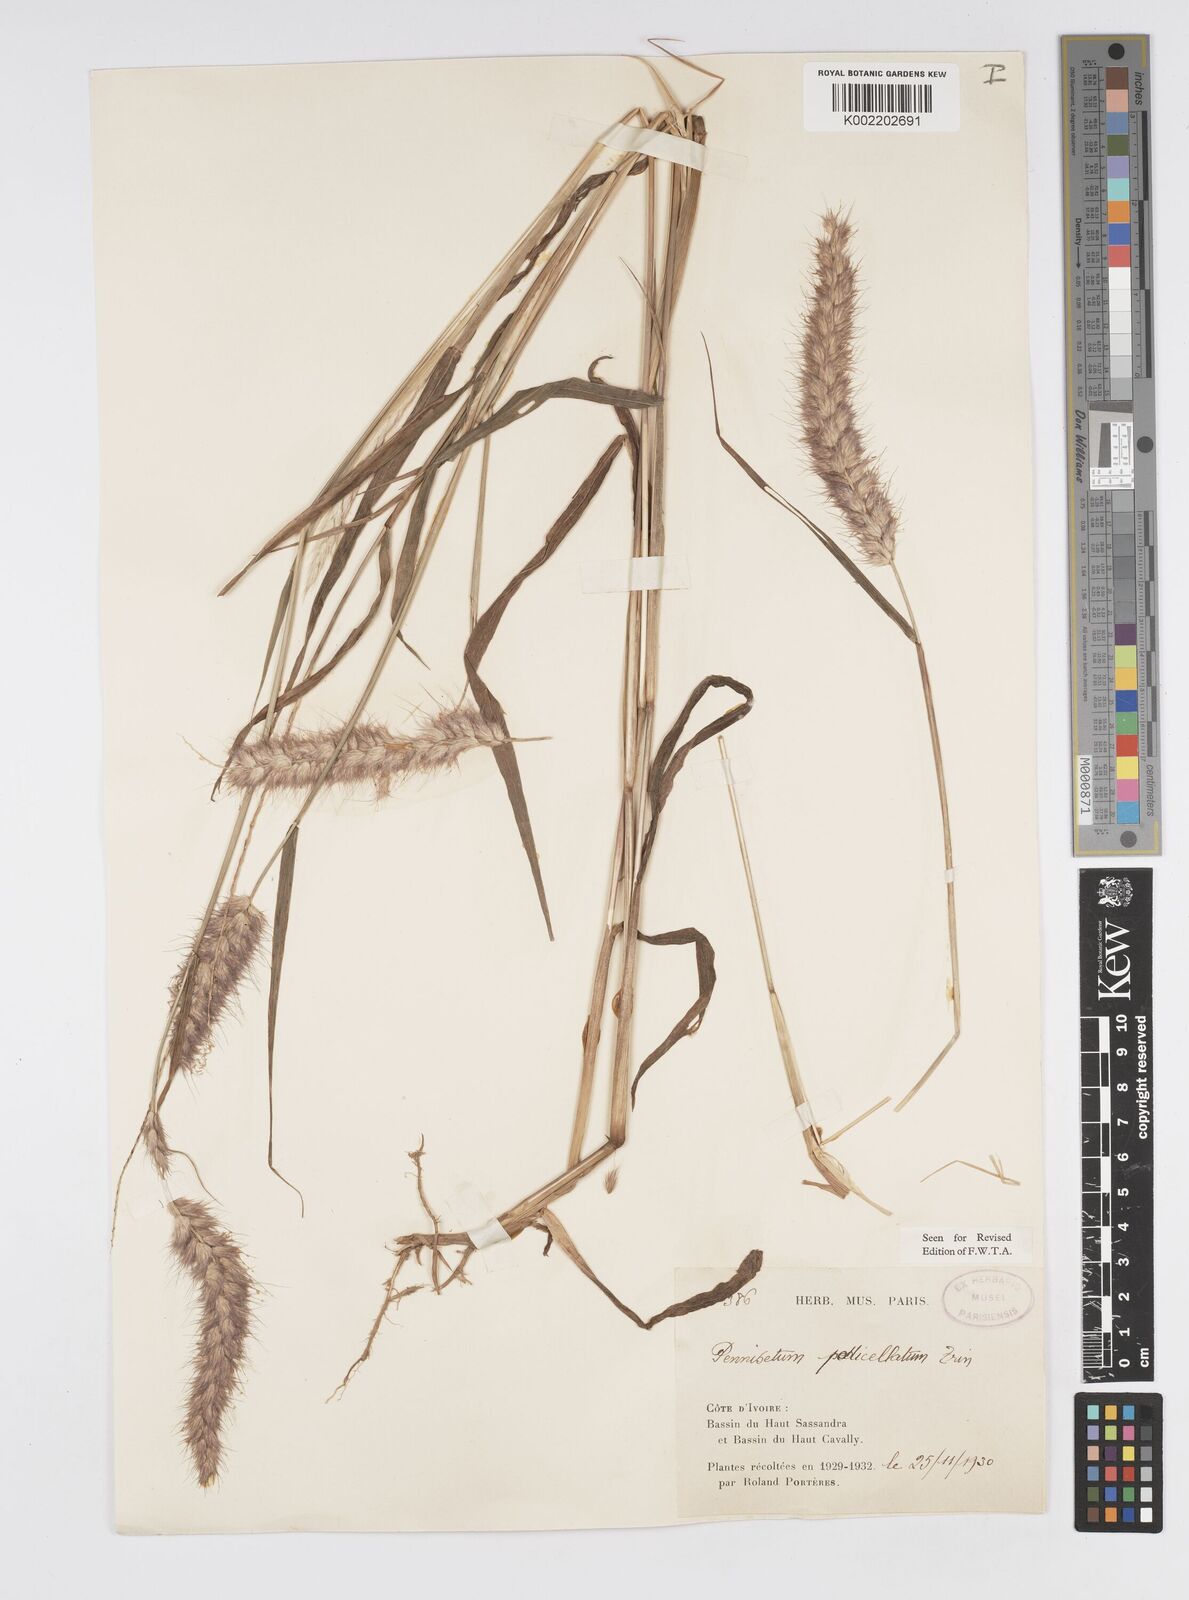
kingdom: Plantae
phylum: Tracheophyta
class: Liliopsida
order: Poales
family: Poaceae
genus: Cenchrus
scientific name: Cenchrus pedicellatus
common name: Hairy fountain grass
